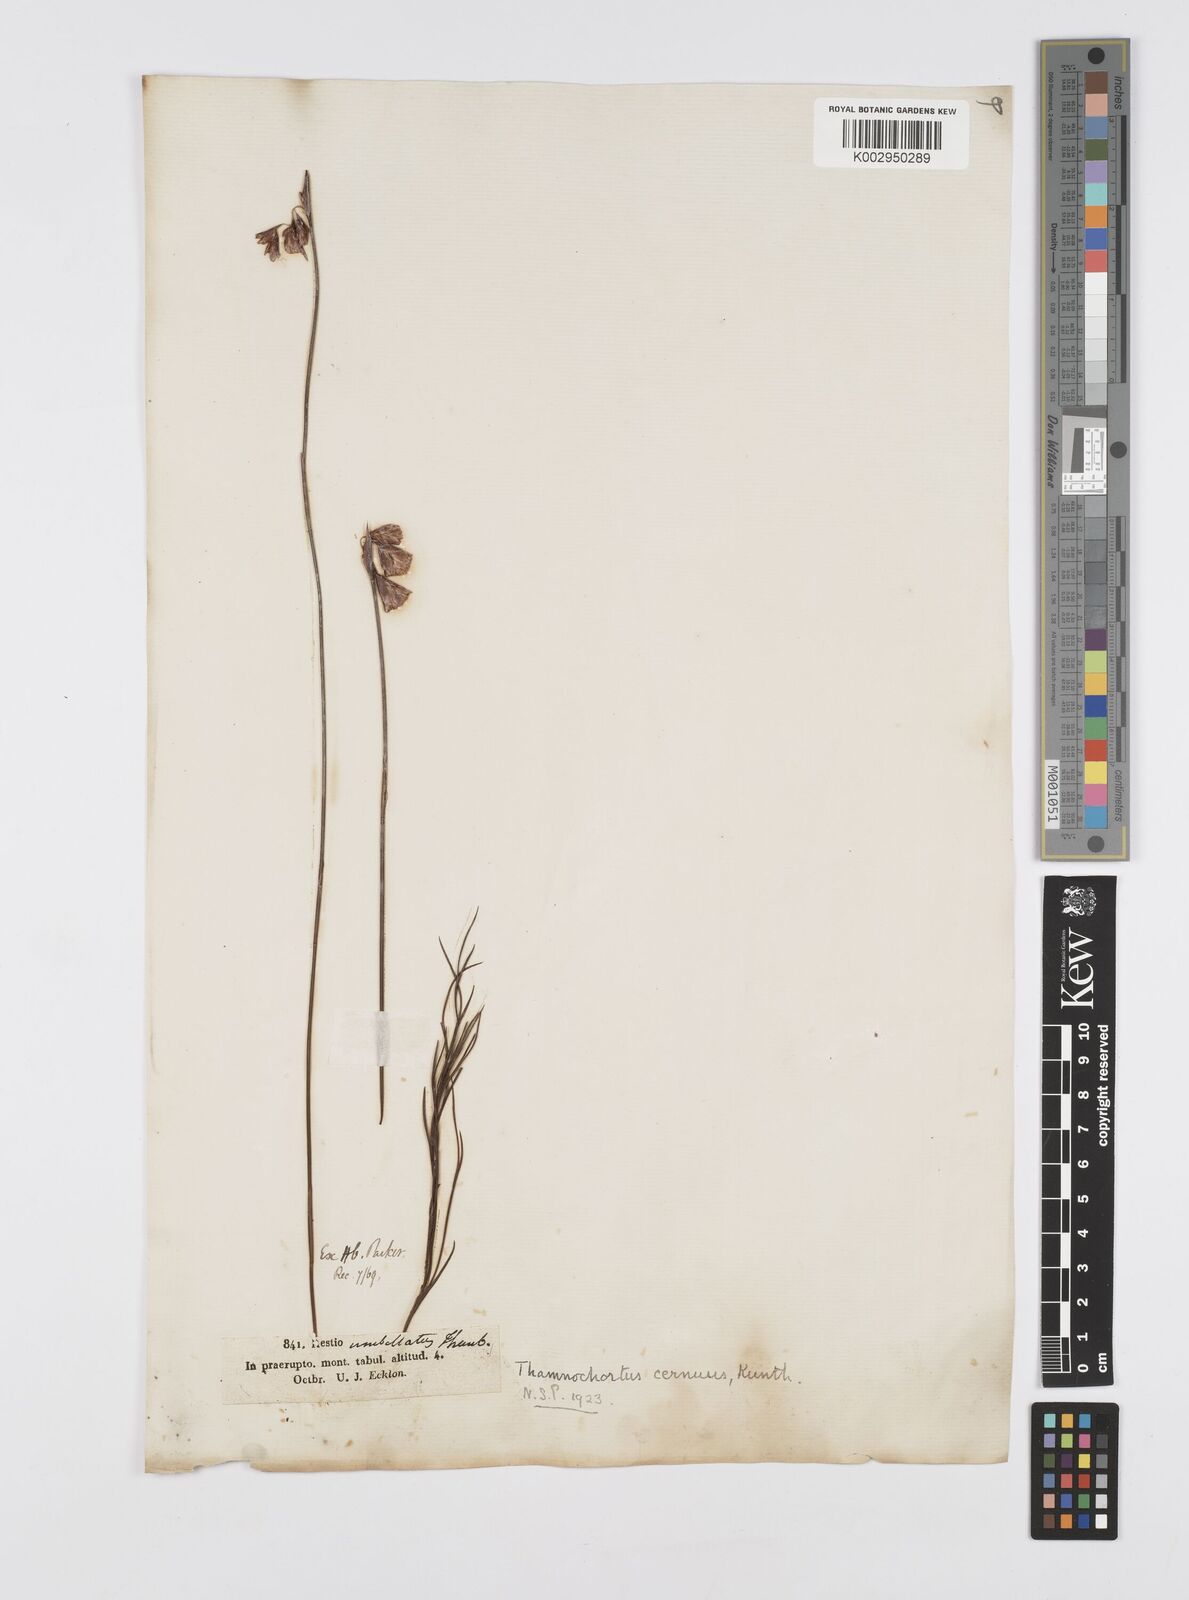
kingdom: Plantae
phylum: Tracheophyta
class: Liliopsida
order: Poales
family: Restionaceae
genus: Staberoha
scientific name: Staberoha cernua
